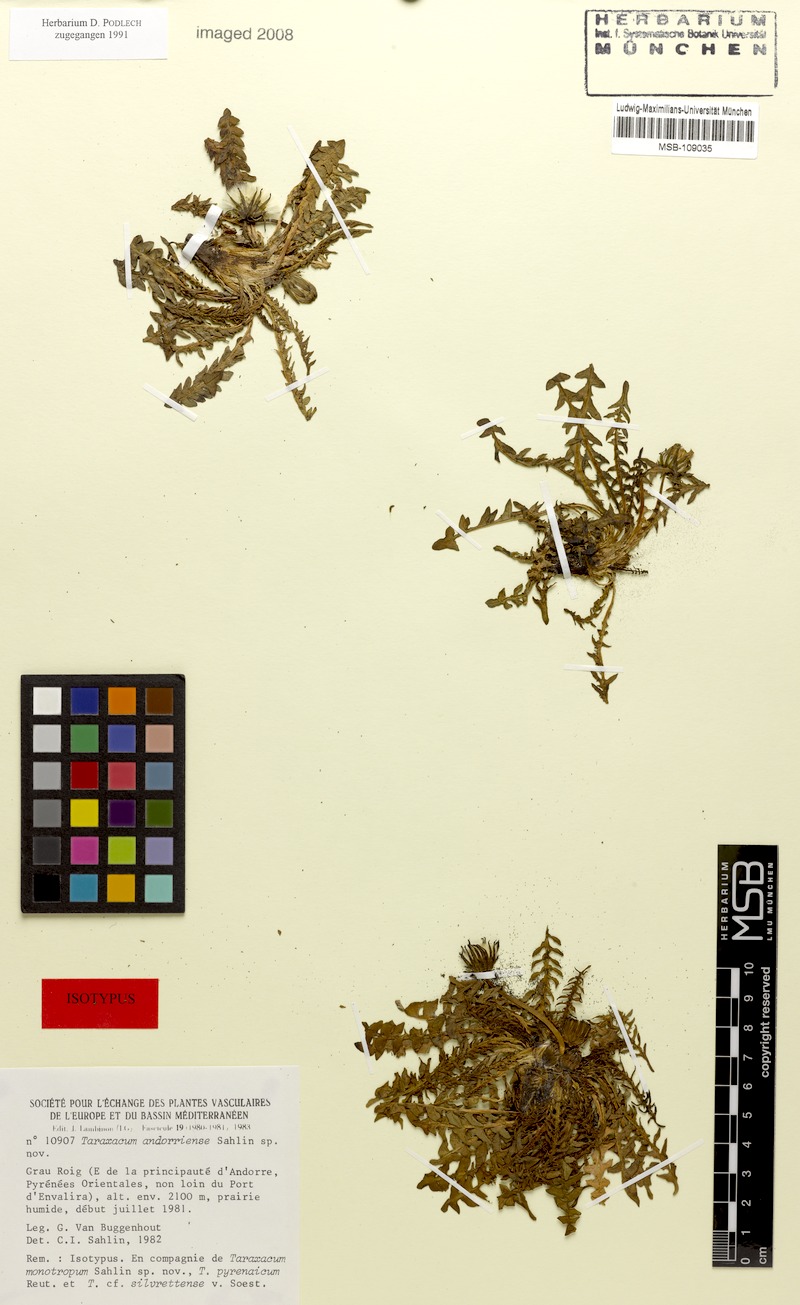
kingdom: Plantae
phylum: Tracheophyta
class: Magnoliopsida
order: Asterales
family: Asteraceae
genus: Taraxacum
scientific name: Taraxacum andorriense
